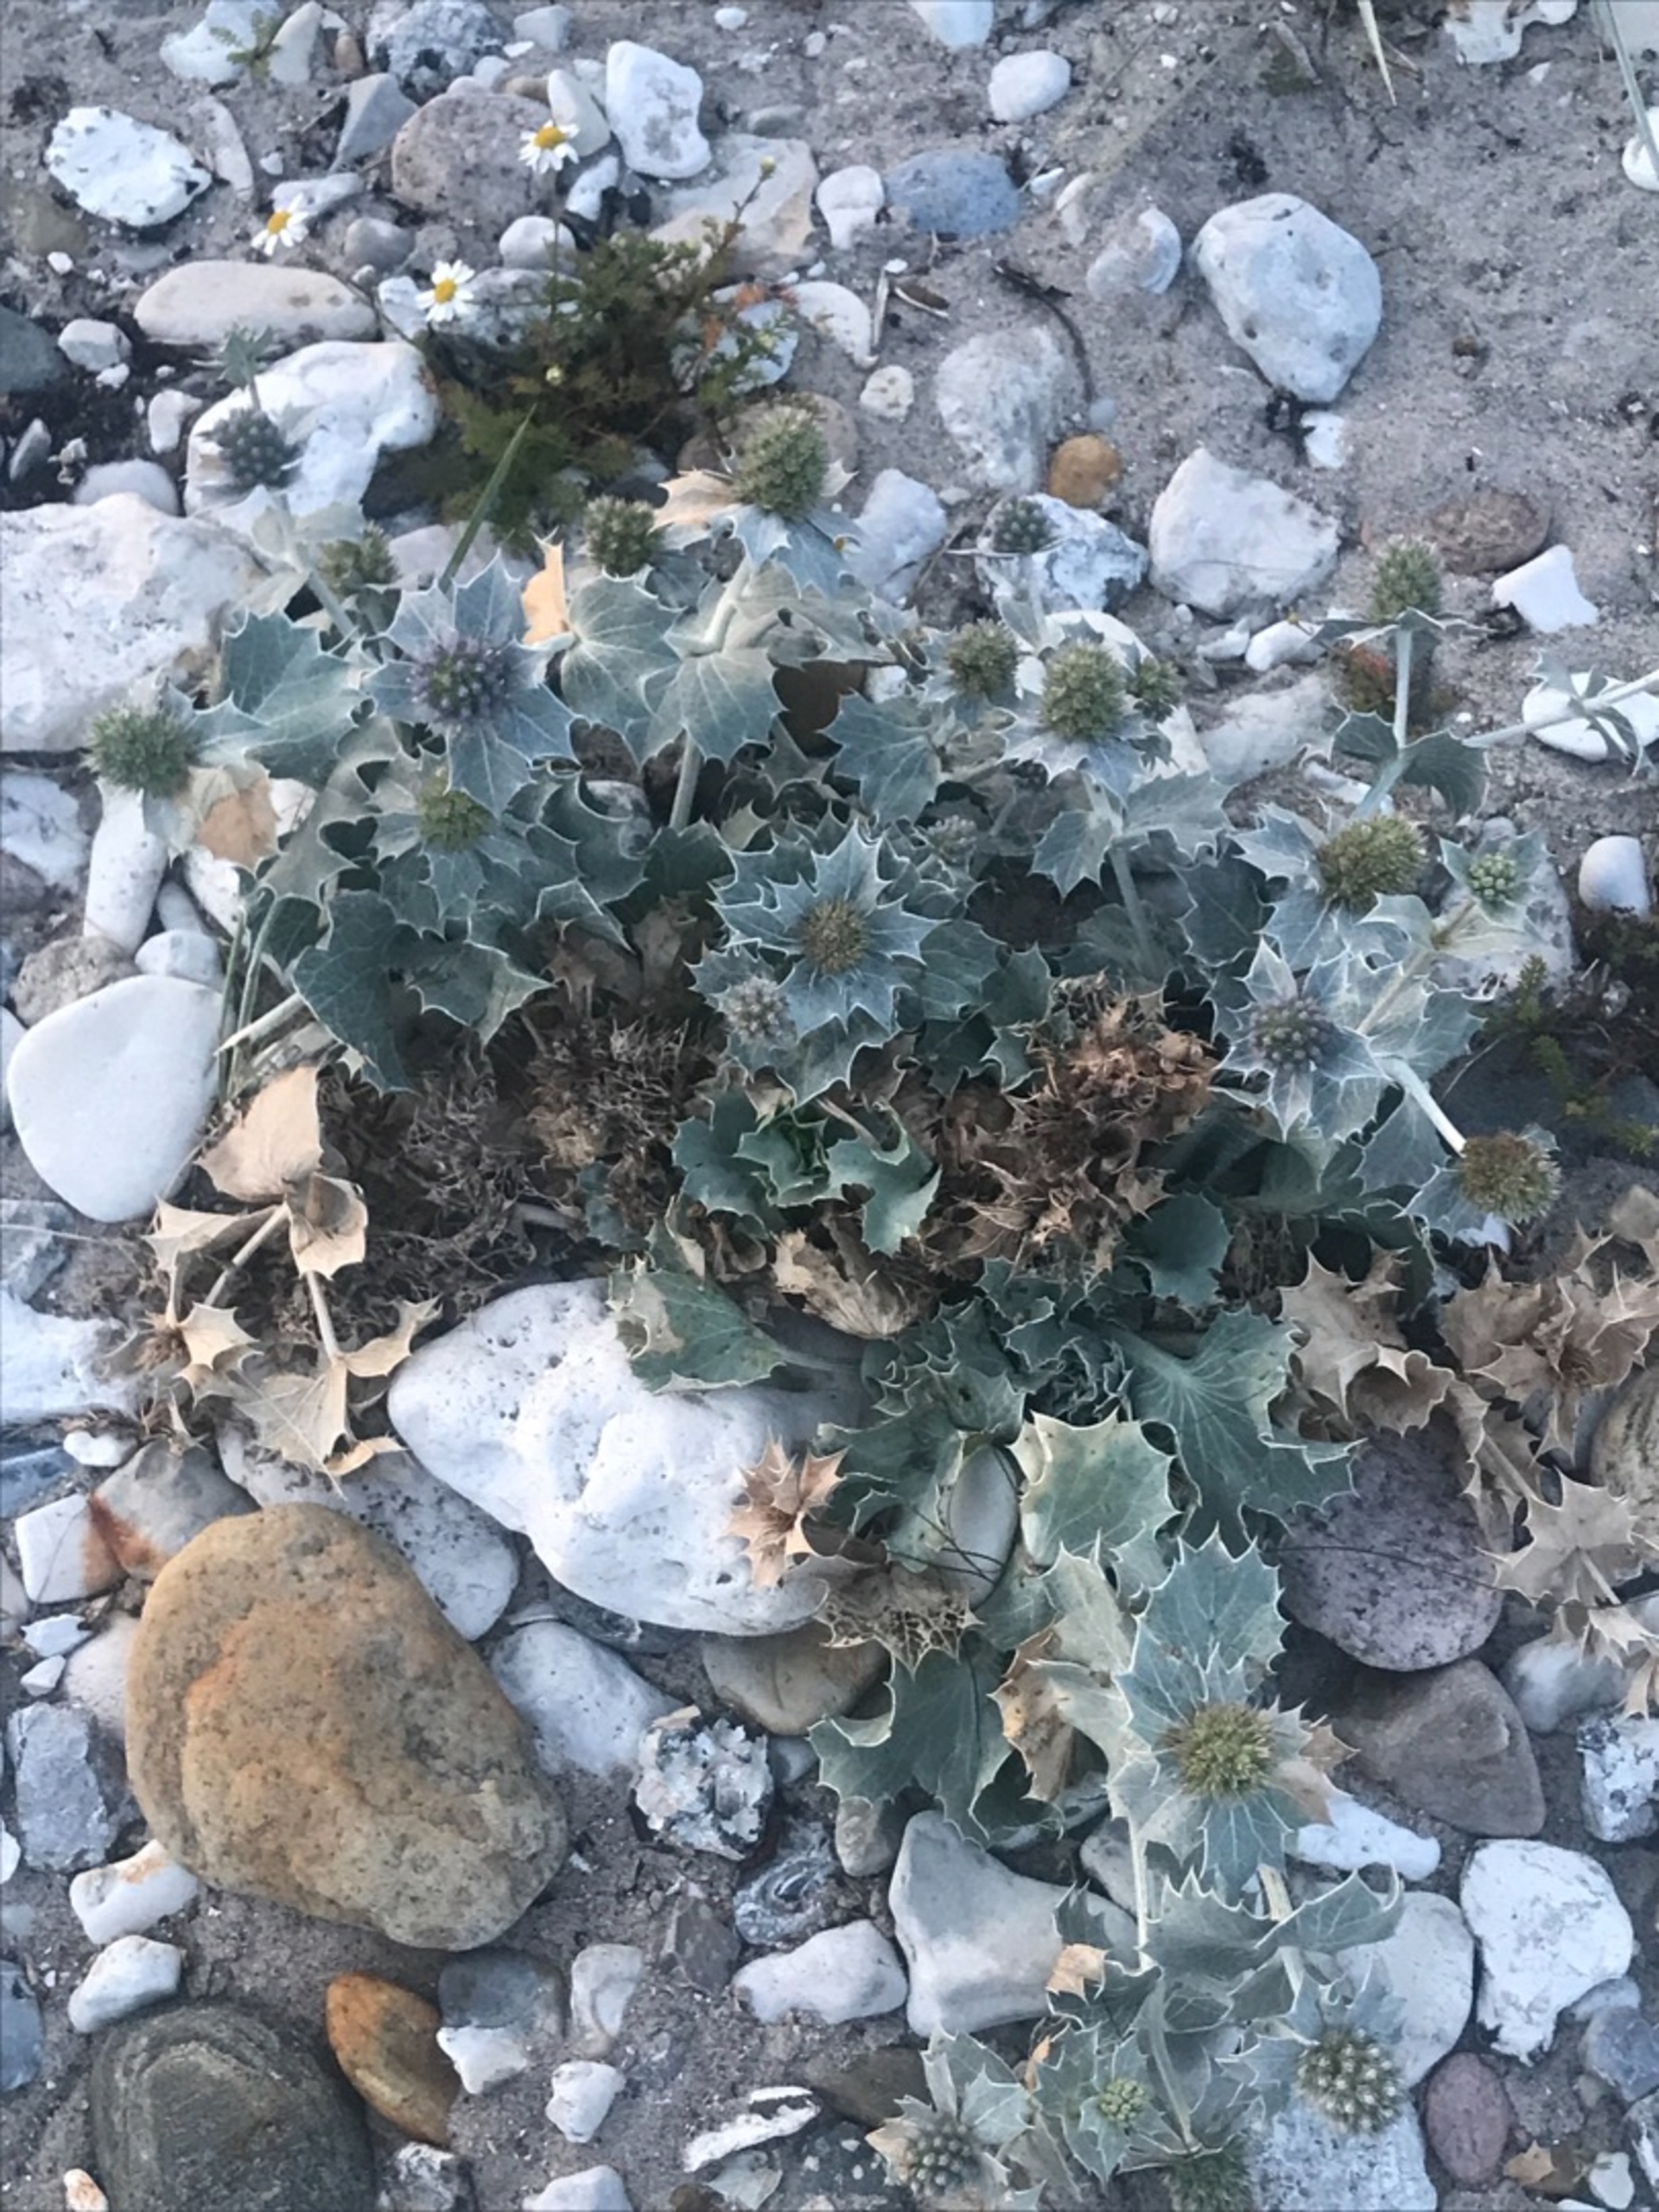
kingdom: Plantae
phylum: Tracheophyta
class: Magnoliopsida
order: Apiales
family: Apiaceae
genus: Eryngium
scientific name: Eryngium maritimum
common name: Strand-mandstro
